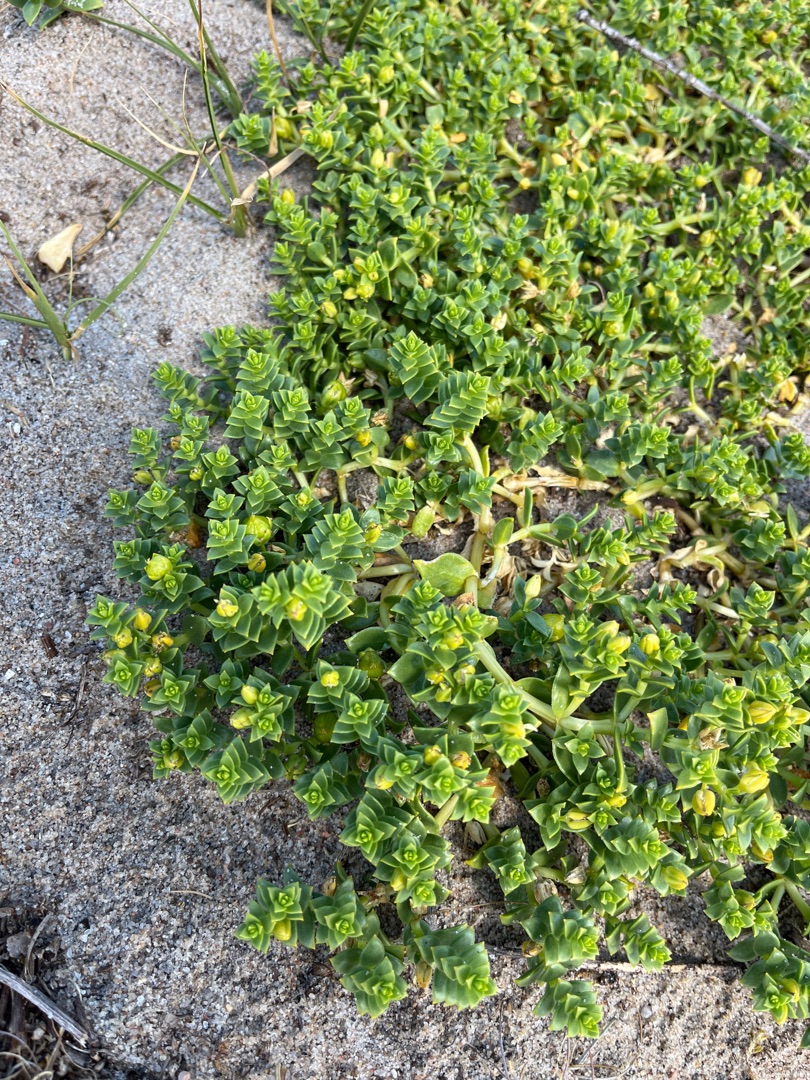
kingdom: Plantae
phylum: Tracheophyta
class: Magnoliopsida
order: Caryophyllales
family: Caryophyllaceae
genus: Honckenya
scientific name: Honckenya peploides
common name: Strandarve
